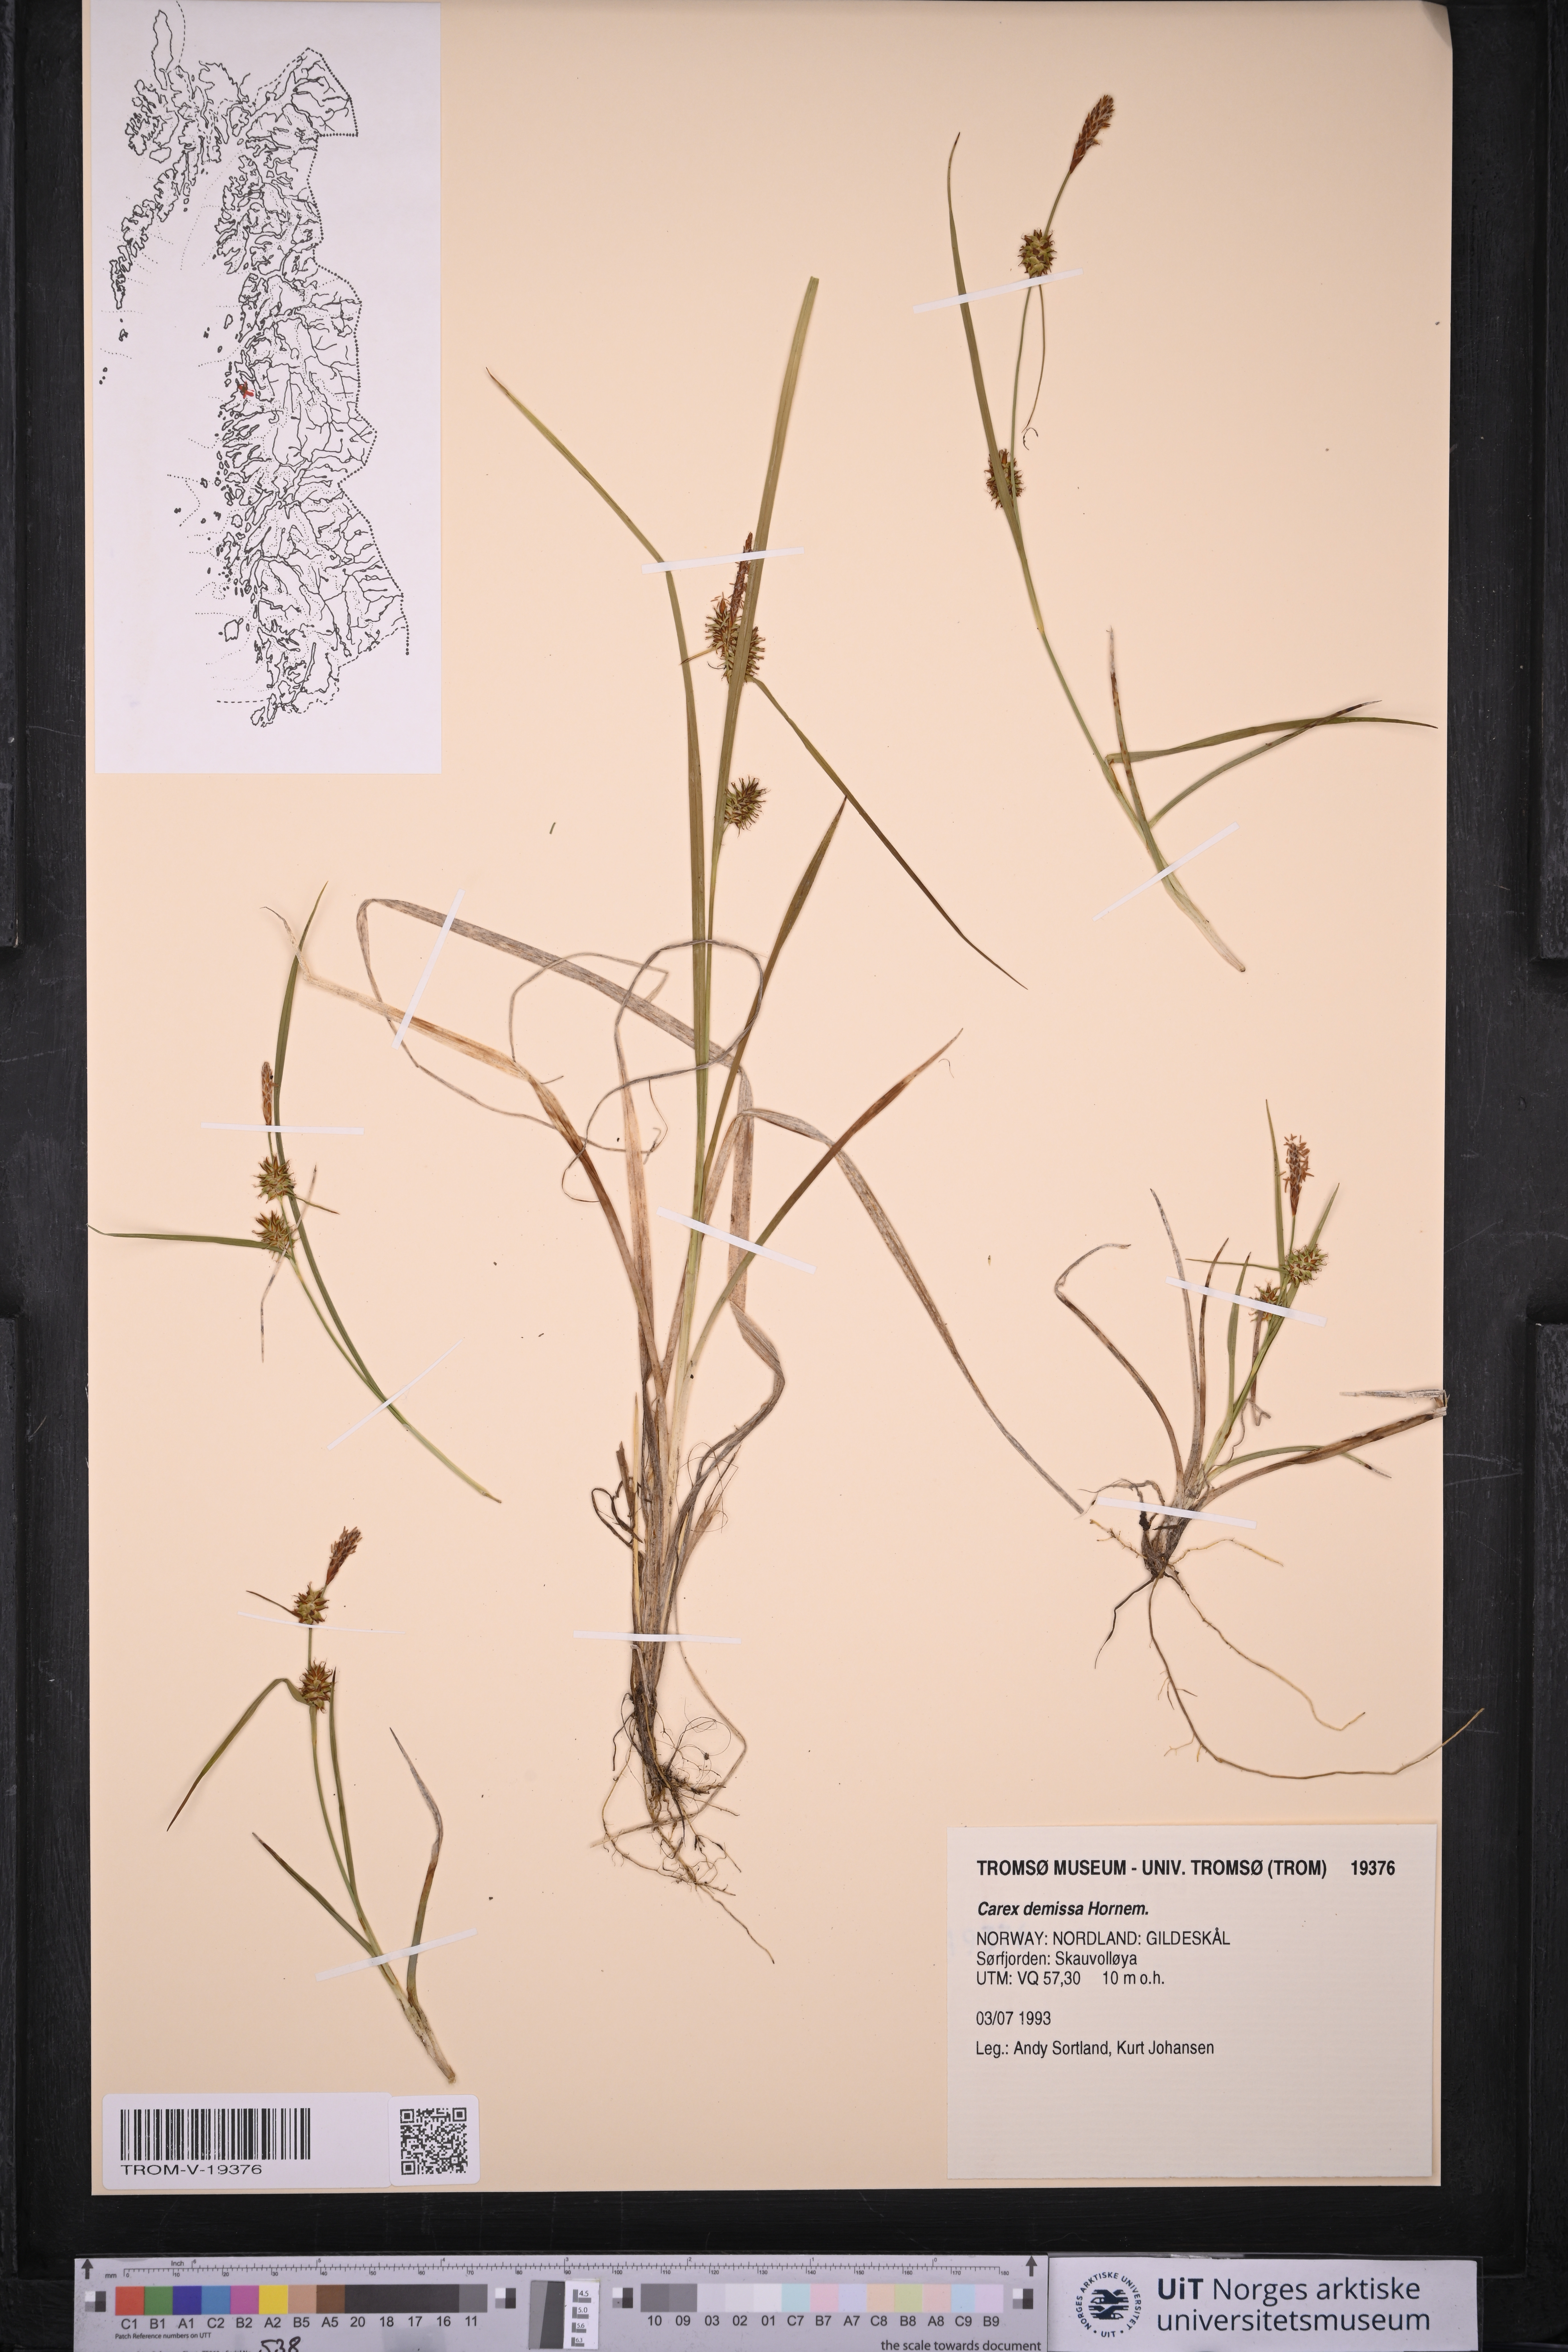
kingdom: Plantae
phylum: Tracheophyta
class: Liliopsida
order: Poales
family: Cyperaceae
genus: Carex
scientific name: Carex demissa
